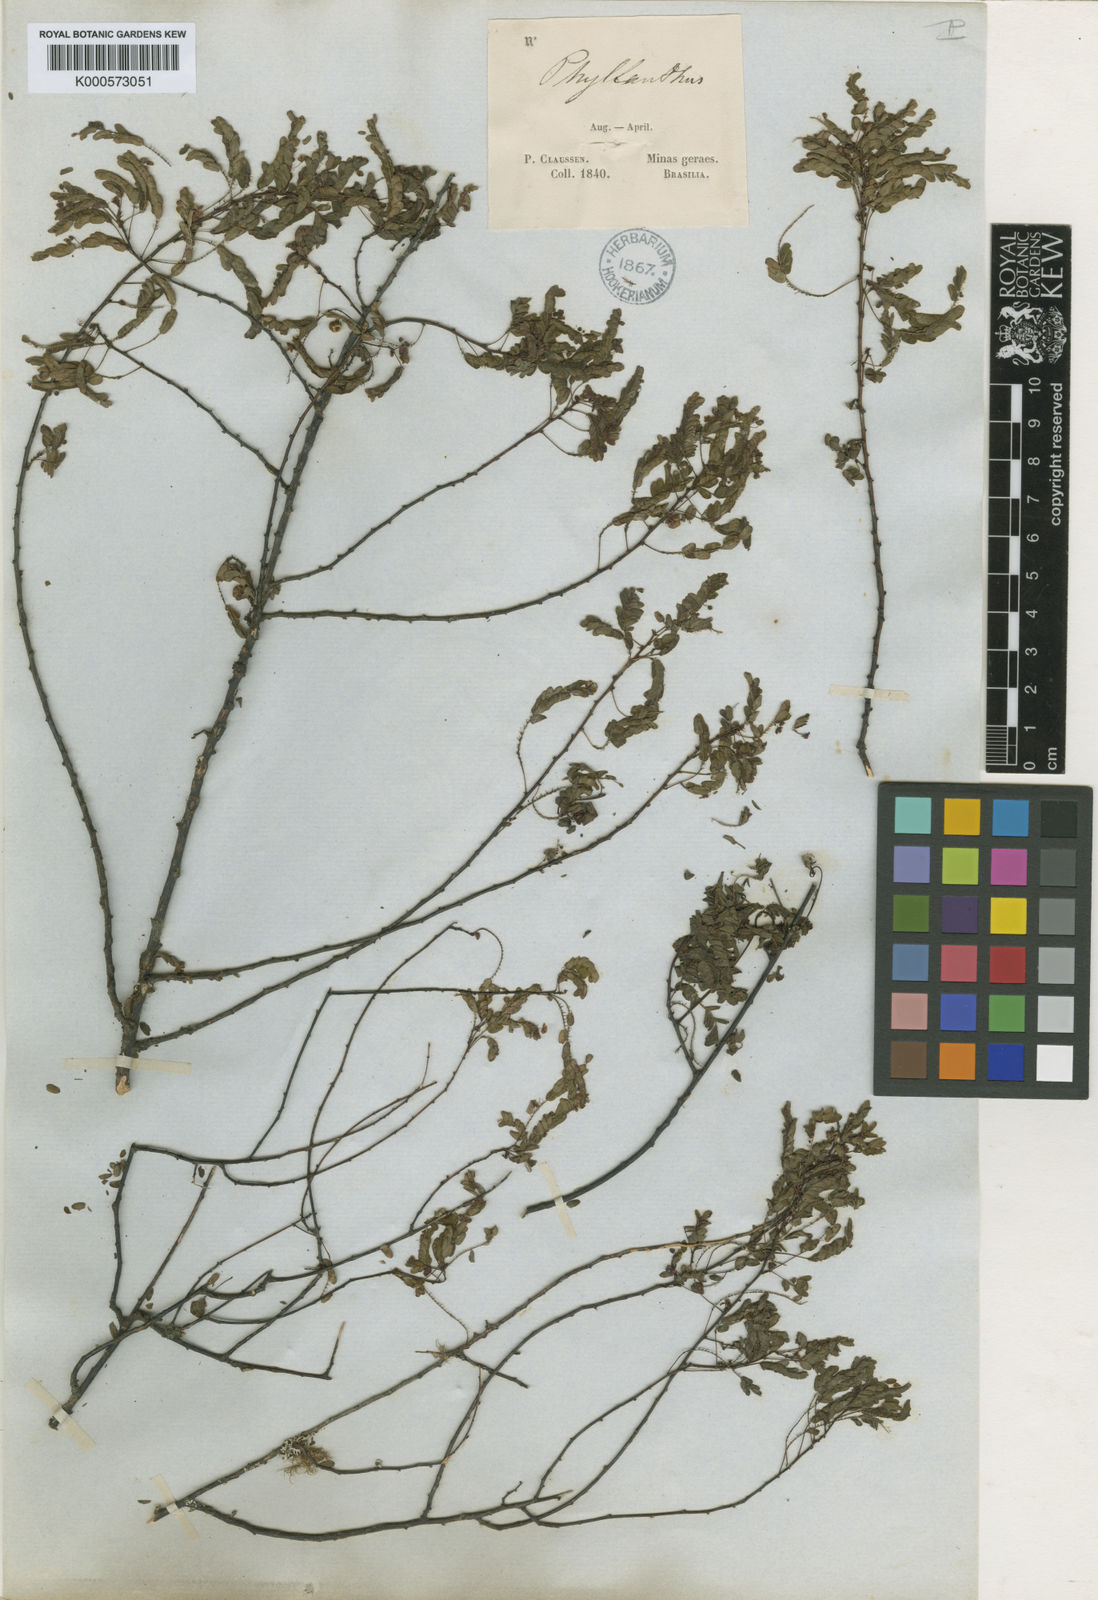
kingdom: Plantae
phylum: Tracheophyta
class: Magnoliopsida
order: Malpighiales
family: Phyllanthaceae
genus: Phyllanthus
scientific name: Phyllanthus
